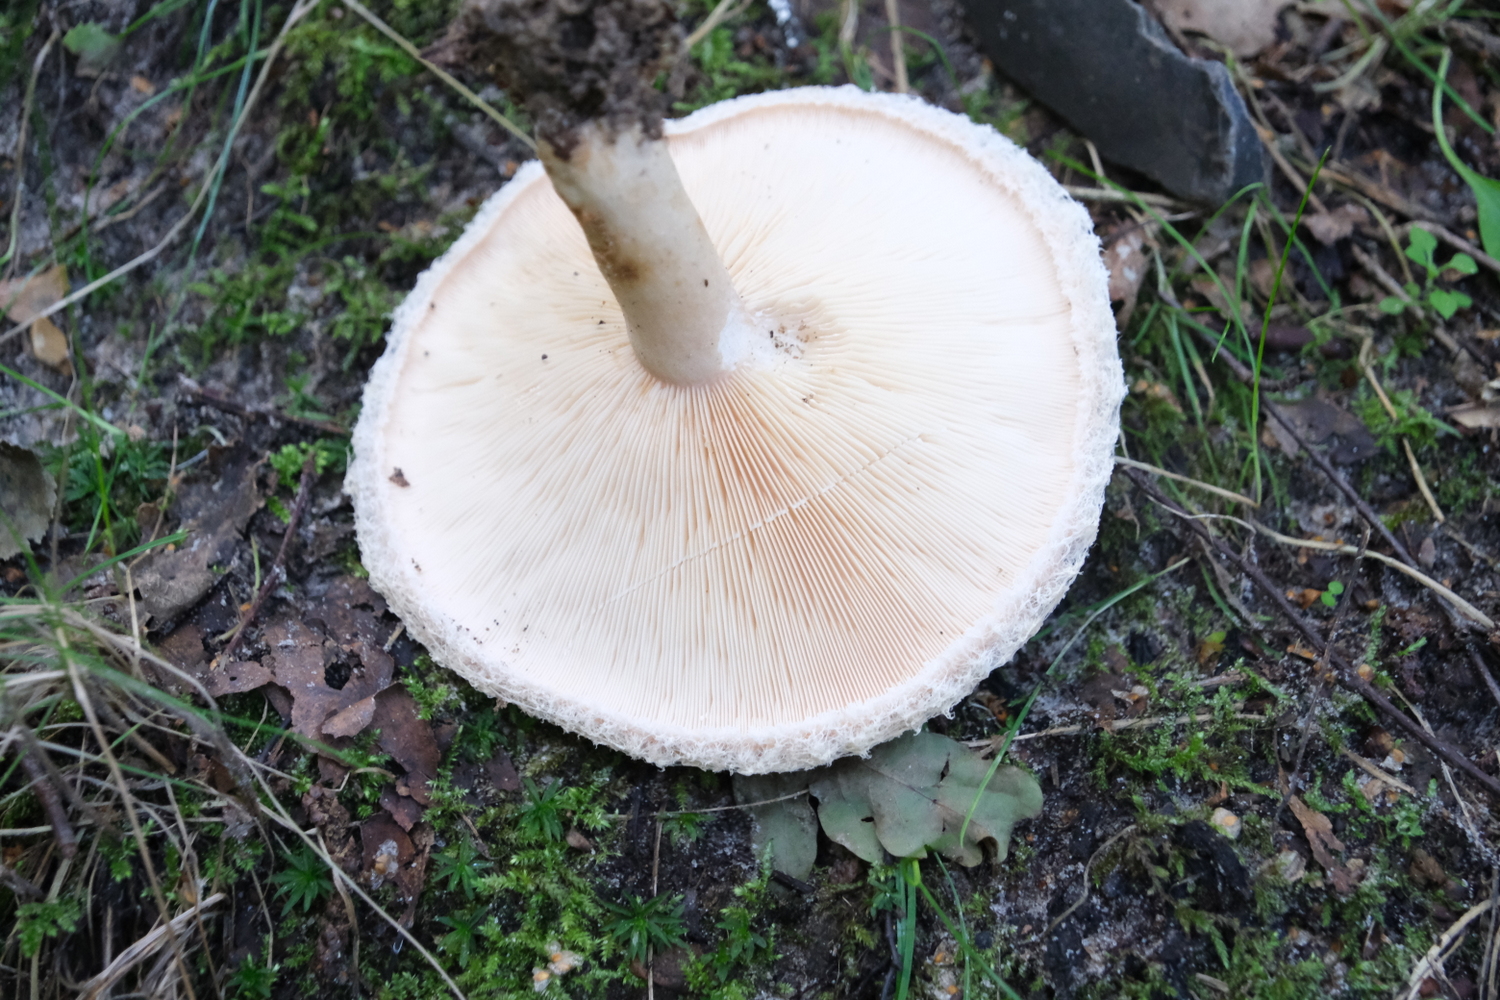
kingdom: Fungi
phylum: Basidiomycota
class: Agaricomycetes
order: Russulales
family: Russulaceae
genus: Lactarius
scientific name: Lactarius pubescens
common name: dunet mælkehat
